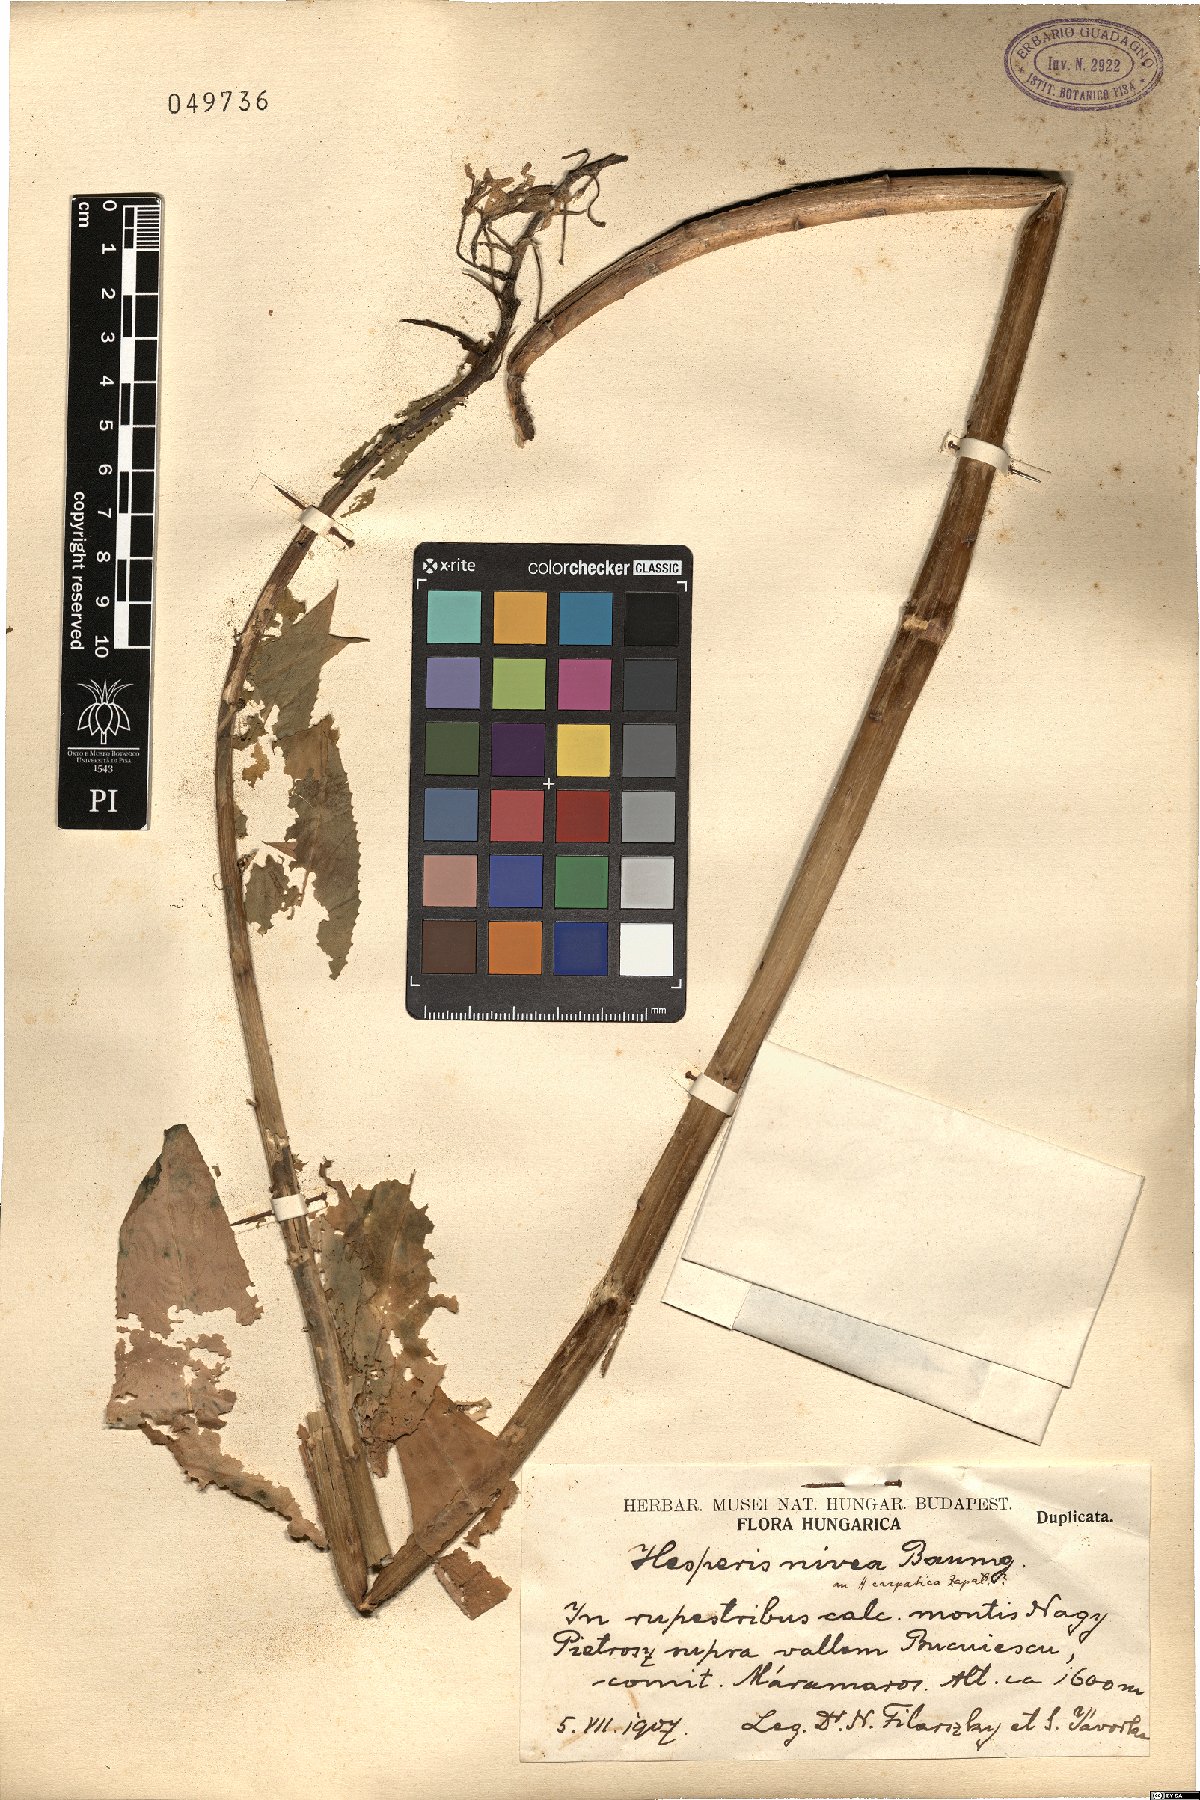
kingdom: Plantae
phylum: Tracheophyta
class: Magnoliopsida
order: Brassicales
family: Brassicaceae
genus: Hesperis
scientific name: Hesperis matronalis
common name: Dame's-violet
